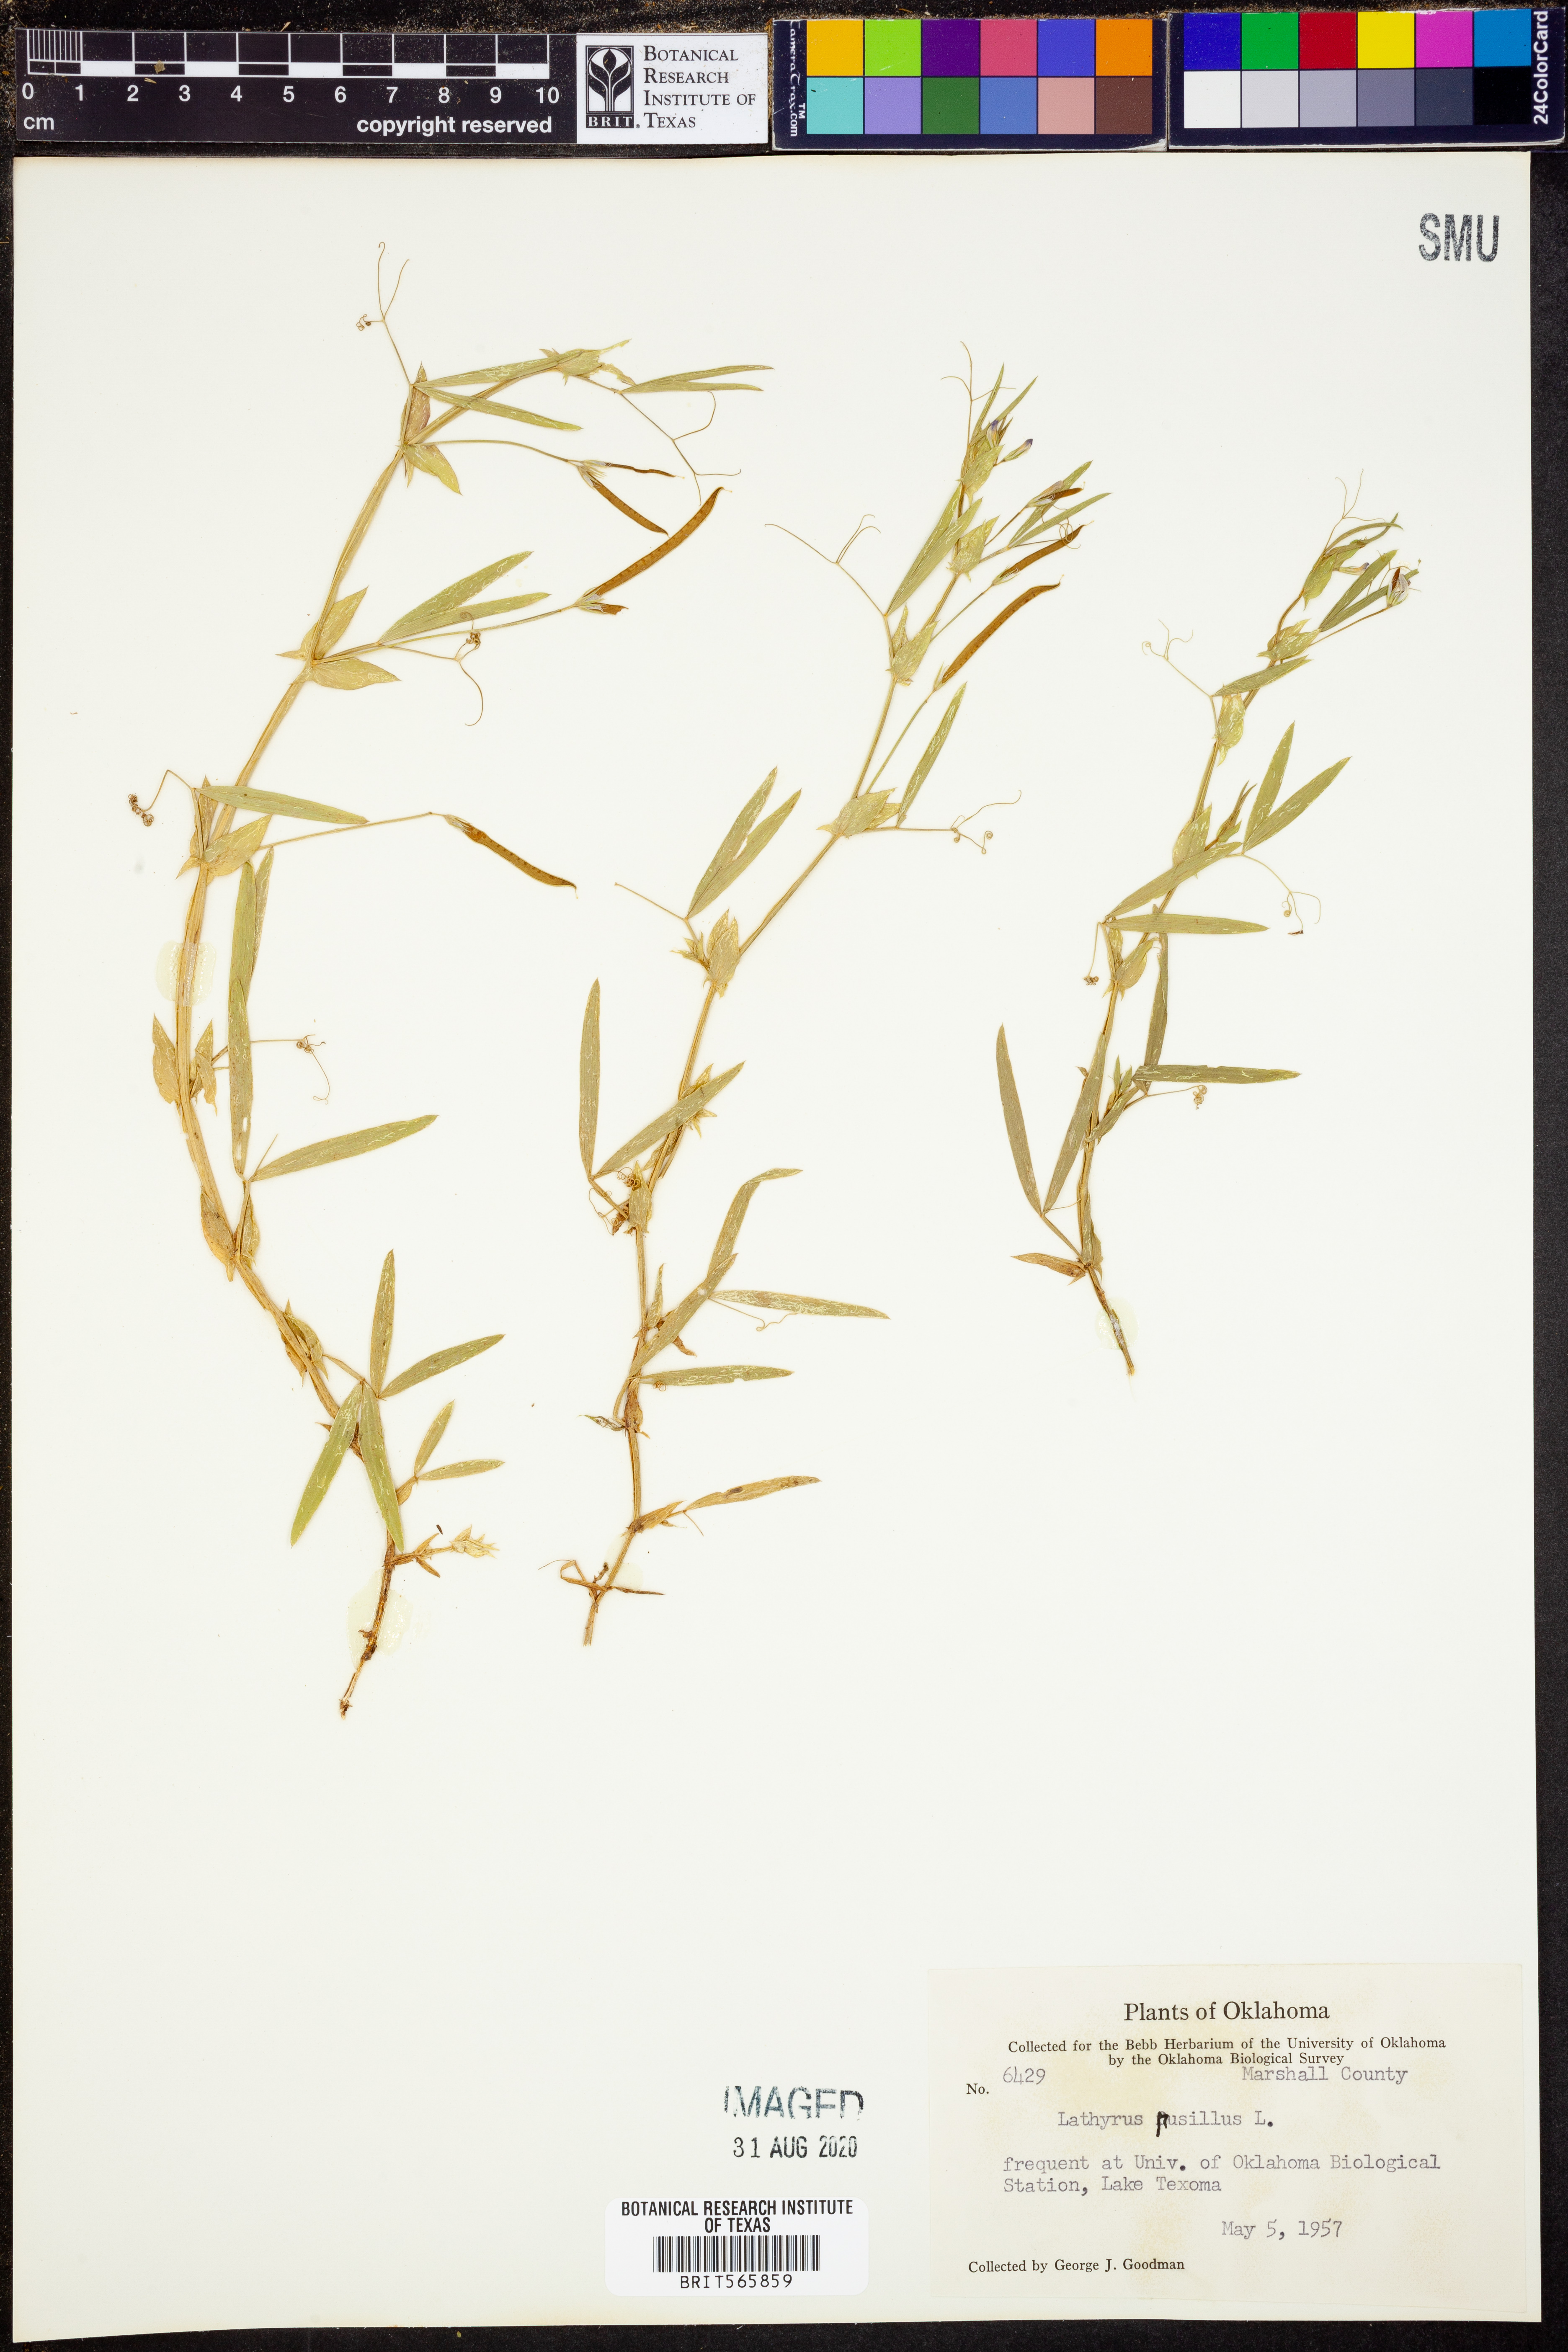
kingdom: Plantae
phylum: Tracheophyta
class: Magnoliopsida
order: Fabales
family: Fabaceae
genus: Lathyrus
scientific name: Lathyrus pusillus
